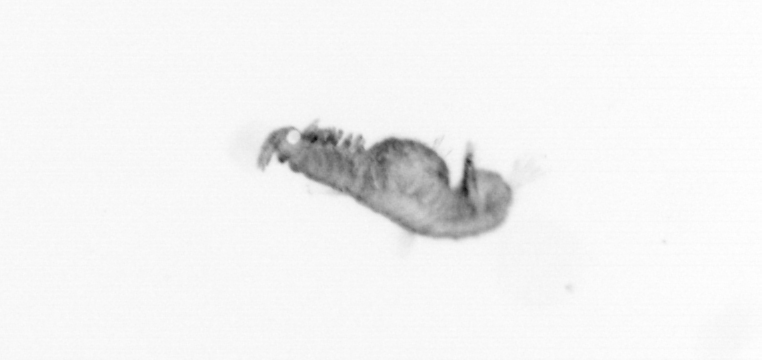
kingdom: Animalia
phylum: Annelida
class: Polychaeta
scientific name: Polychaeta
